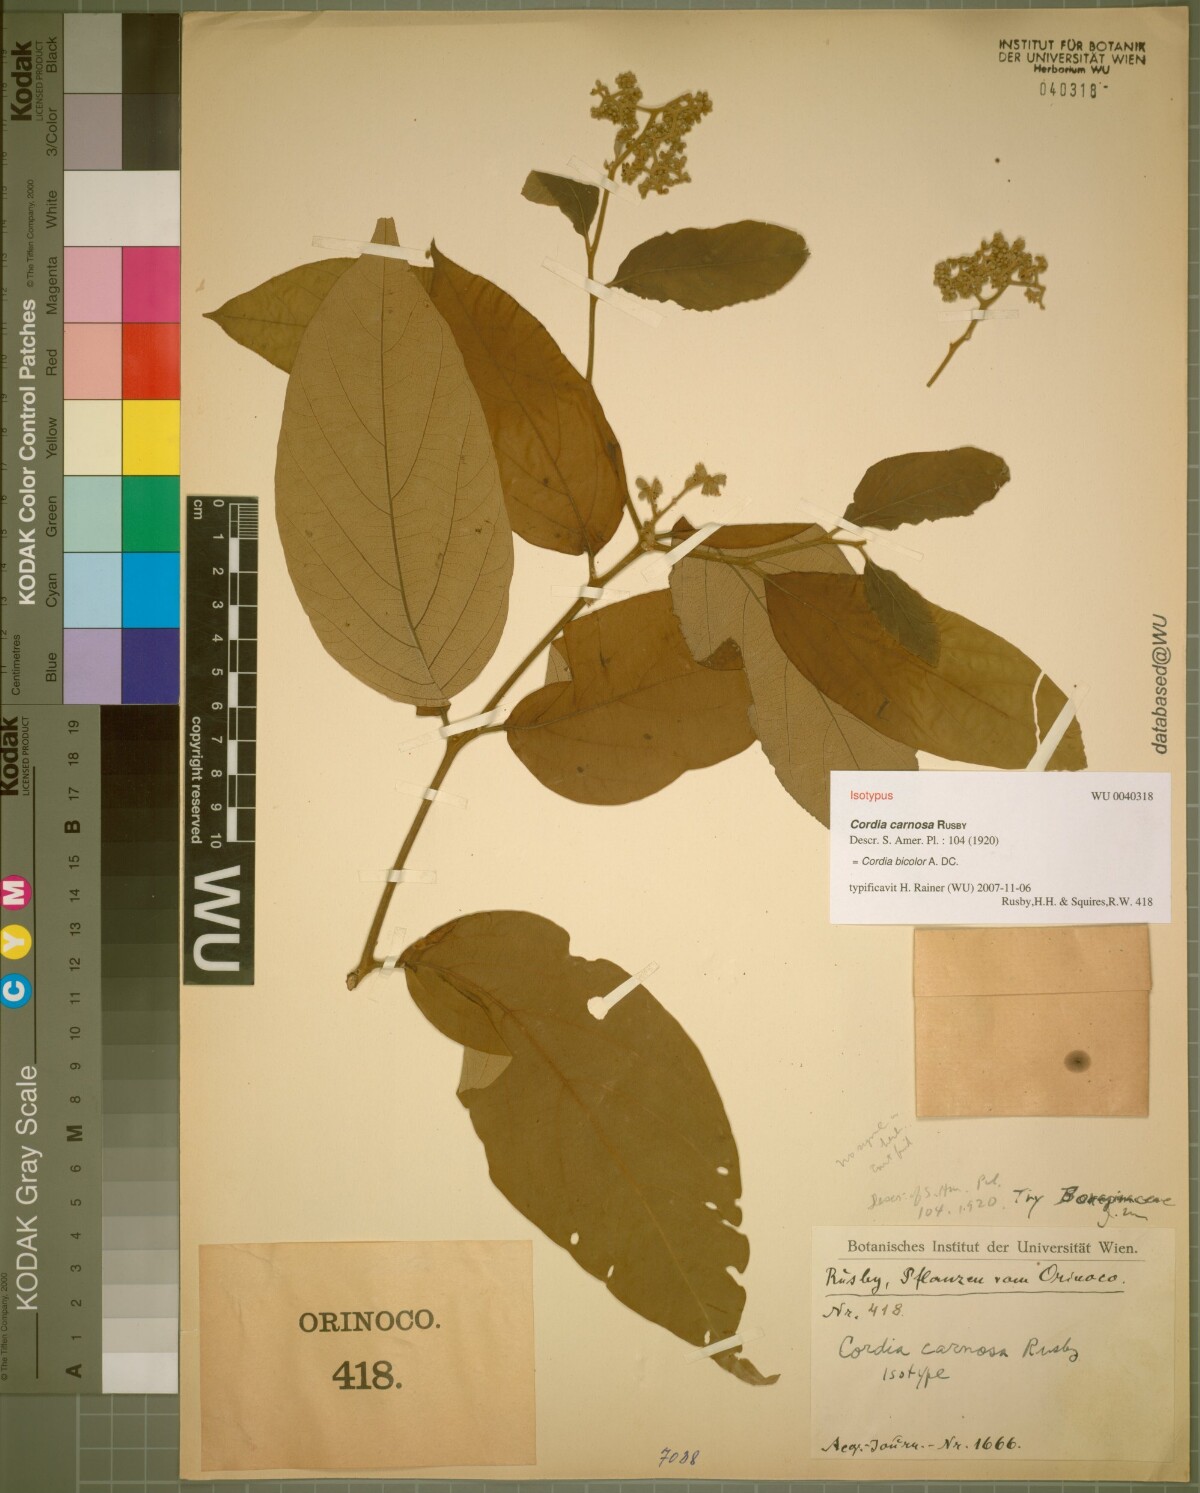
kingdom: Plantae
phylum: Tracheophyta
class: Magnoliopsida
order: Boraginales
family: Cordiaceae
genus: Cordia
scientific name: Cordia bicolor
